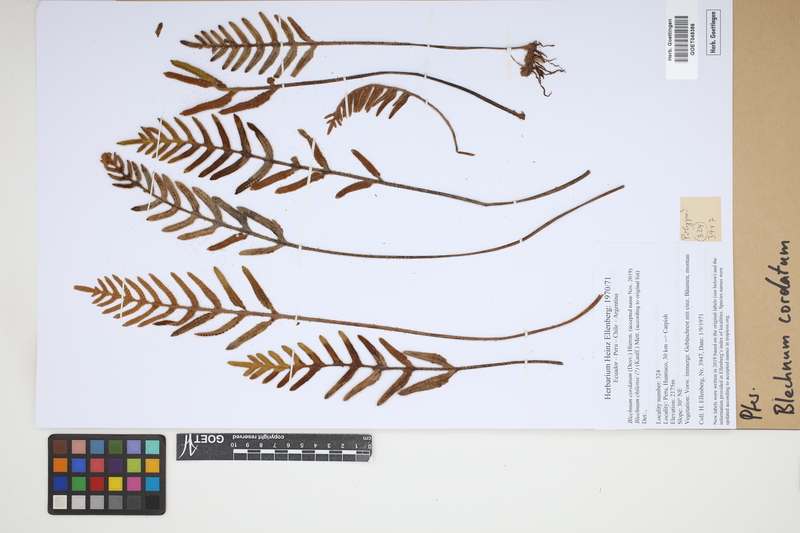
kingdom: Plantae
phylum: Tracheophyta
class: Polypodiopsida
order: Polypodiales
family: Blechnaceae
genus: Parablechnum
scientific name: Parablechnum cordatum
